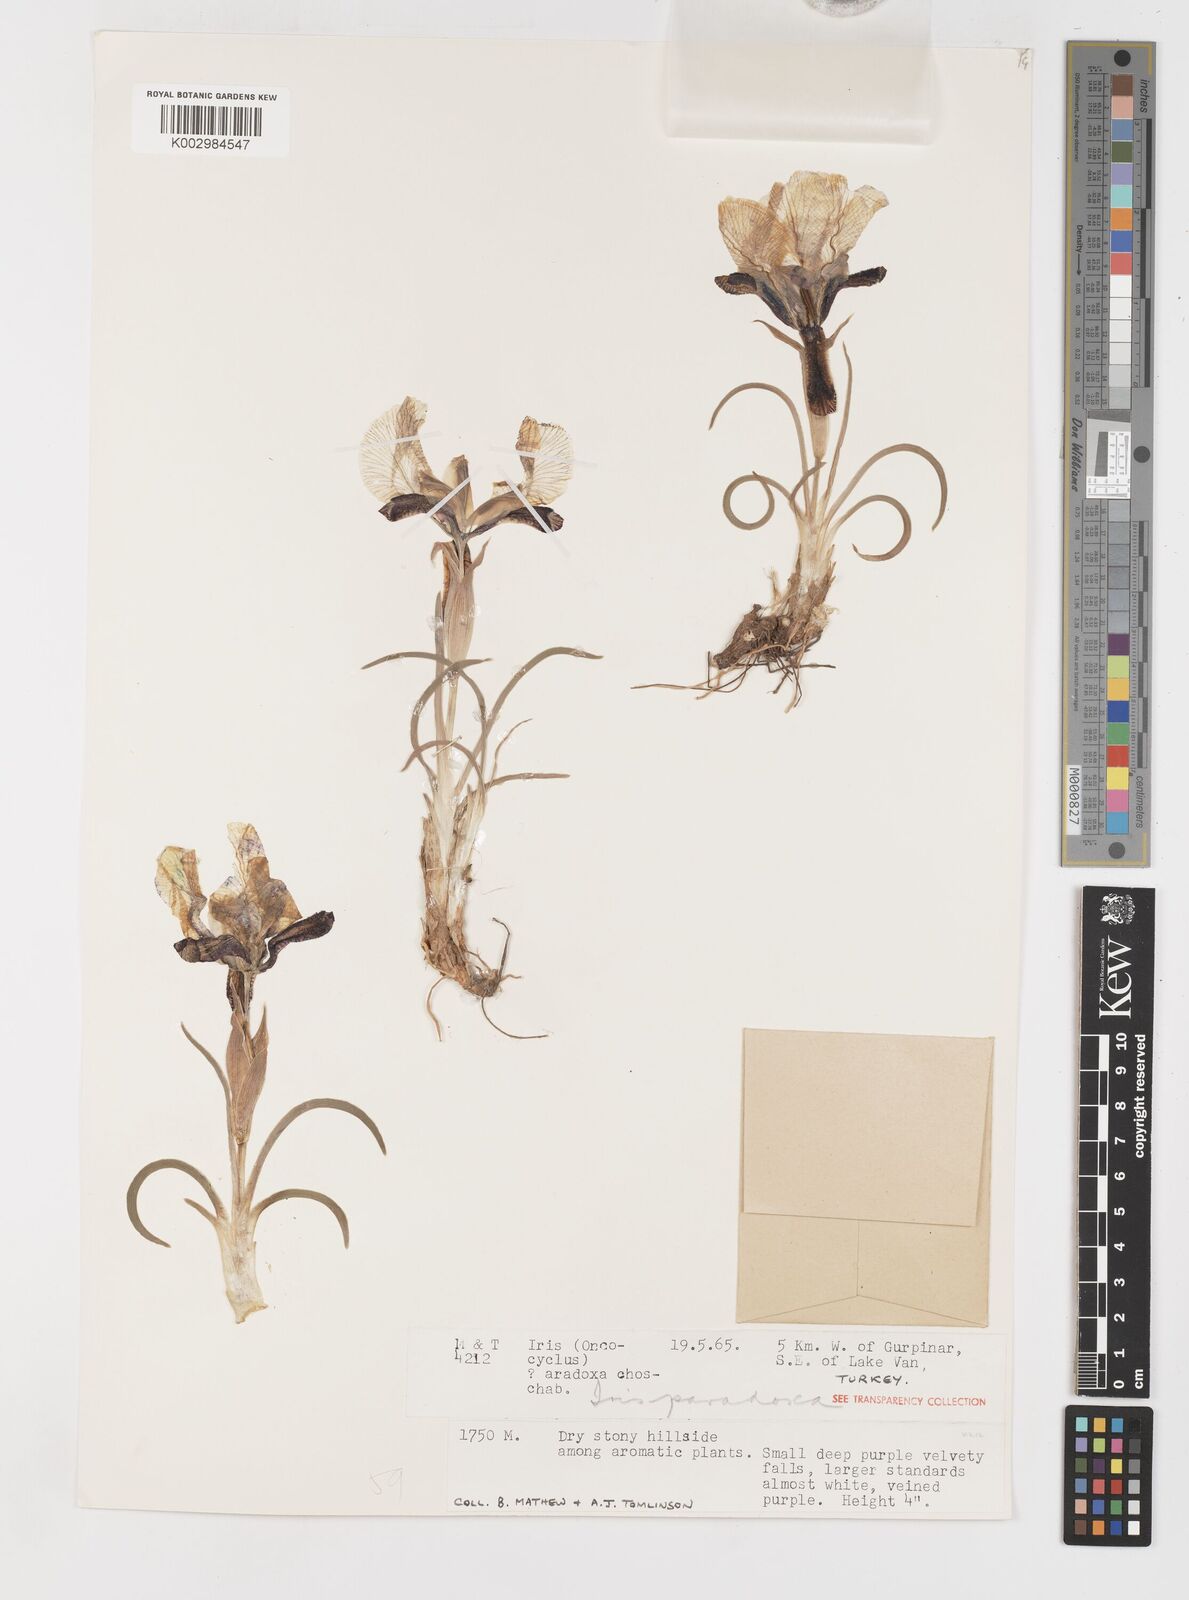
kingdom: Plantae
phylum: Tracheophyta
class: Liliopsida
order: Asparagales
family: Iridaceae
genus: Iris
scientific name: Iris paradoxa
